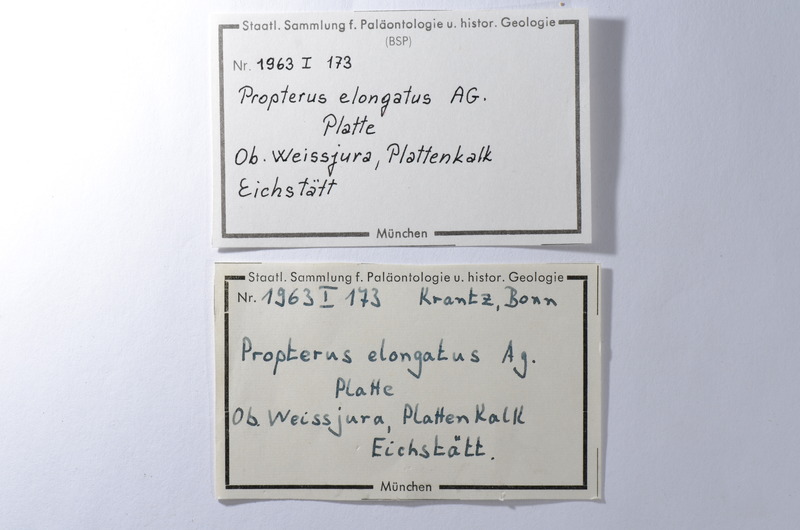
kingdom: Animalia
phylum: Chordata
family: Macrosemiidae
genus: Propterus
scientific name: Propterus elongatus
